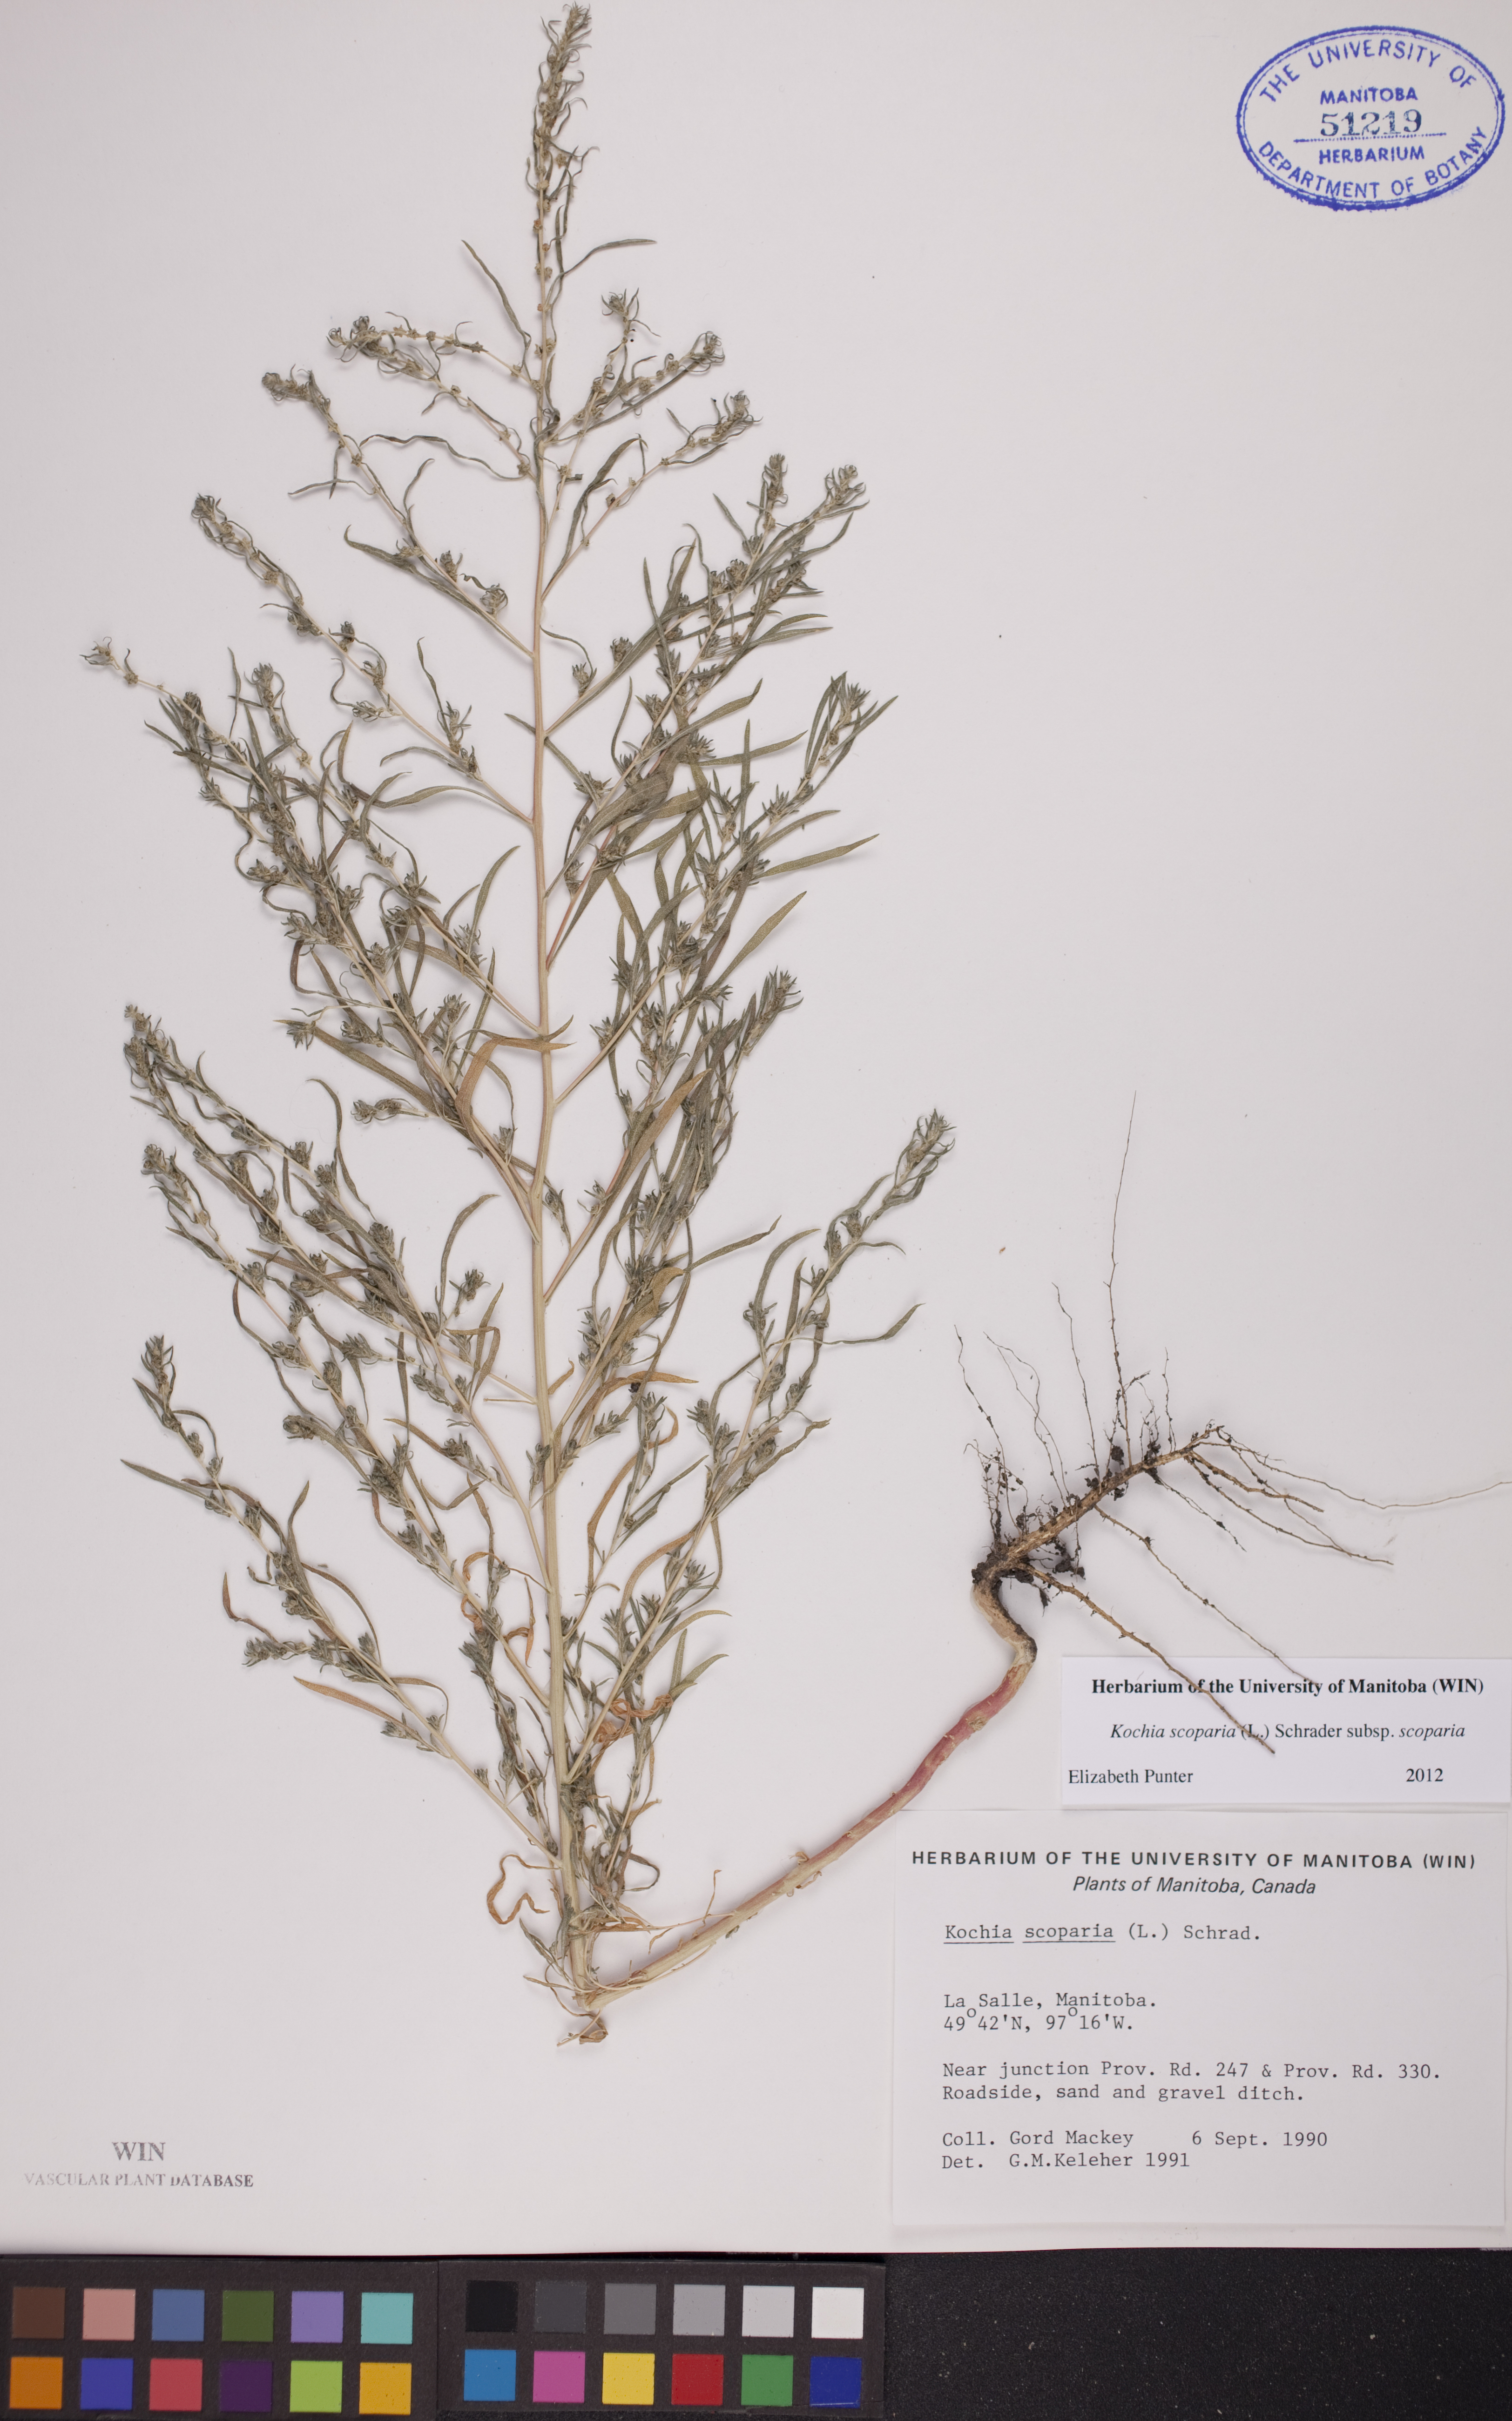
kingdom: Plantae
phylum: Tracheophyta
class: Magnoliopsida
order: Caryophyllales
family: Amaranthaceae
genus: Bassia
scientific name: Bassia scoparia
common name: Belvedere
